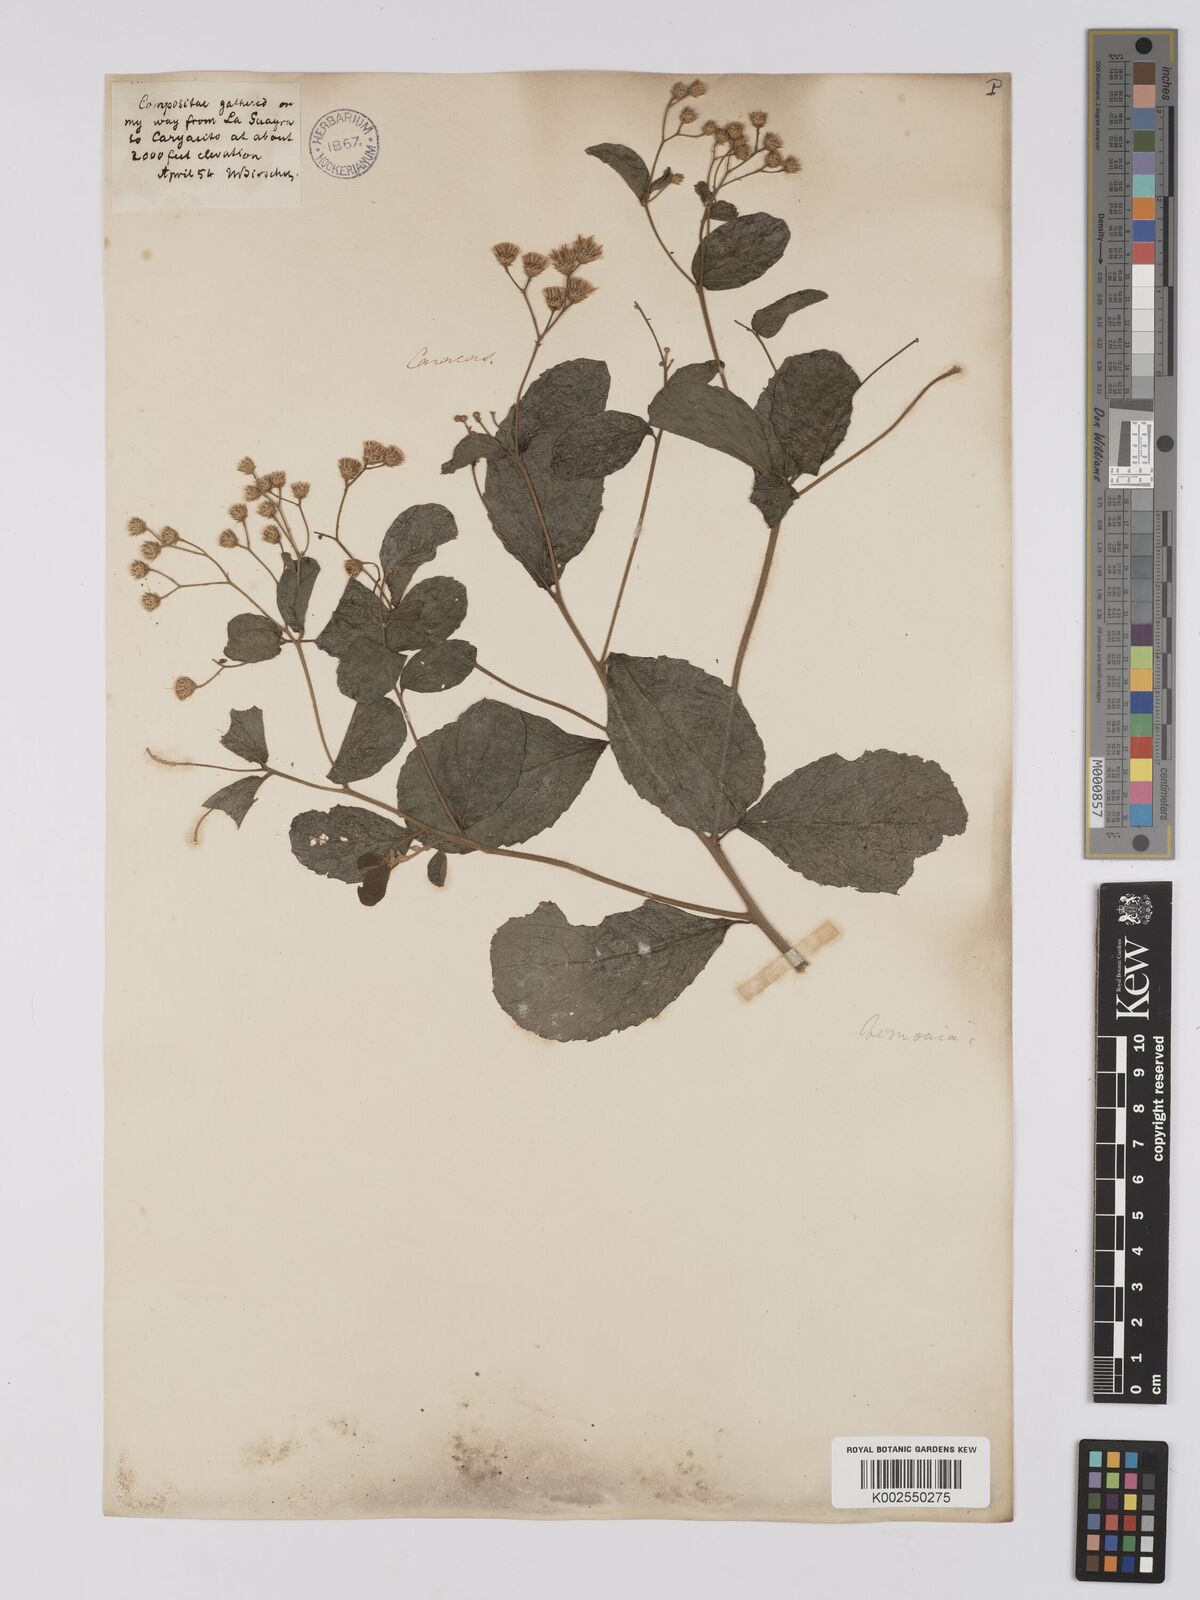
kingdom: Plantae
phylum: Tracheophyta
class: Magnoliopsida
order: Asterales
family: Asteraceae
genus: Vernonanthura
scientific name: Vernonanthura brasiliana
